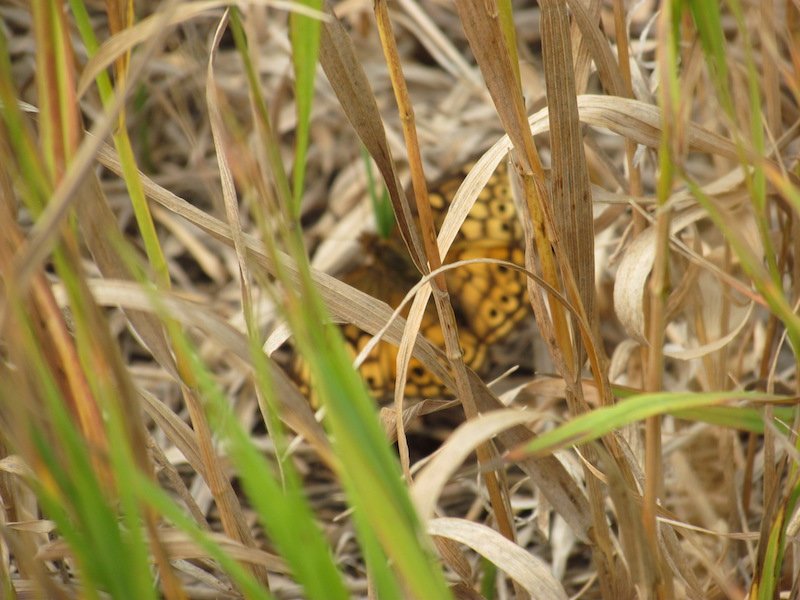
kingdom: Animalia
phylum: Arthropoda
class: Insecta
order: Lepidoptera
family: Nymphalidae
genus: Speyeria
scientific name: Speyeria cybele
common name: Great Spangled Fritillary
